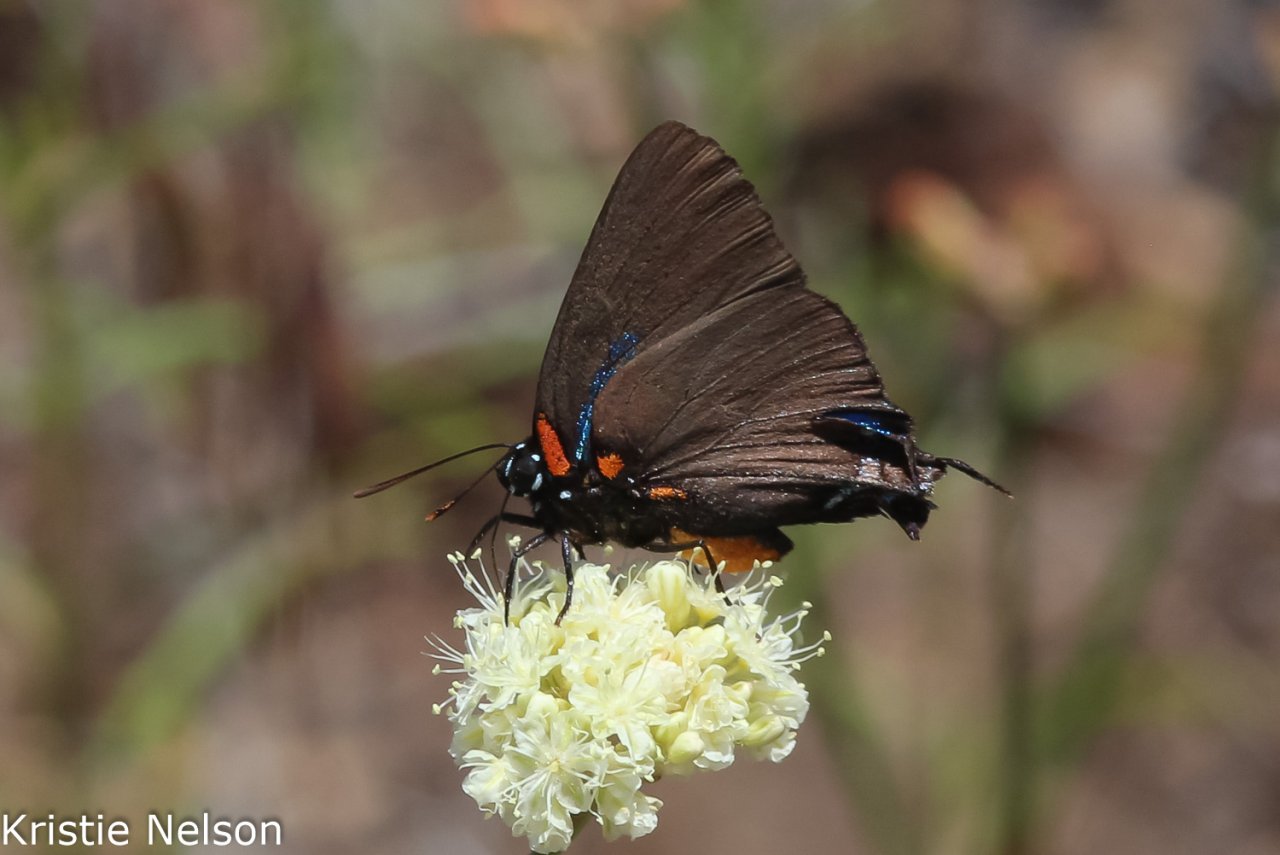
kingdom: Animalia
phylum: Arthropoda
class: Insecta
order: Lepidoptera
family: Lycaenidae
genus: Atlides
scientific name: Atlides halesus
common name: Great Purple Hairstreak
